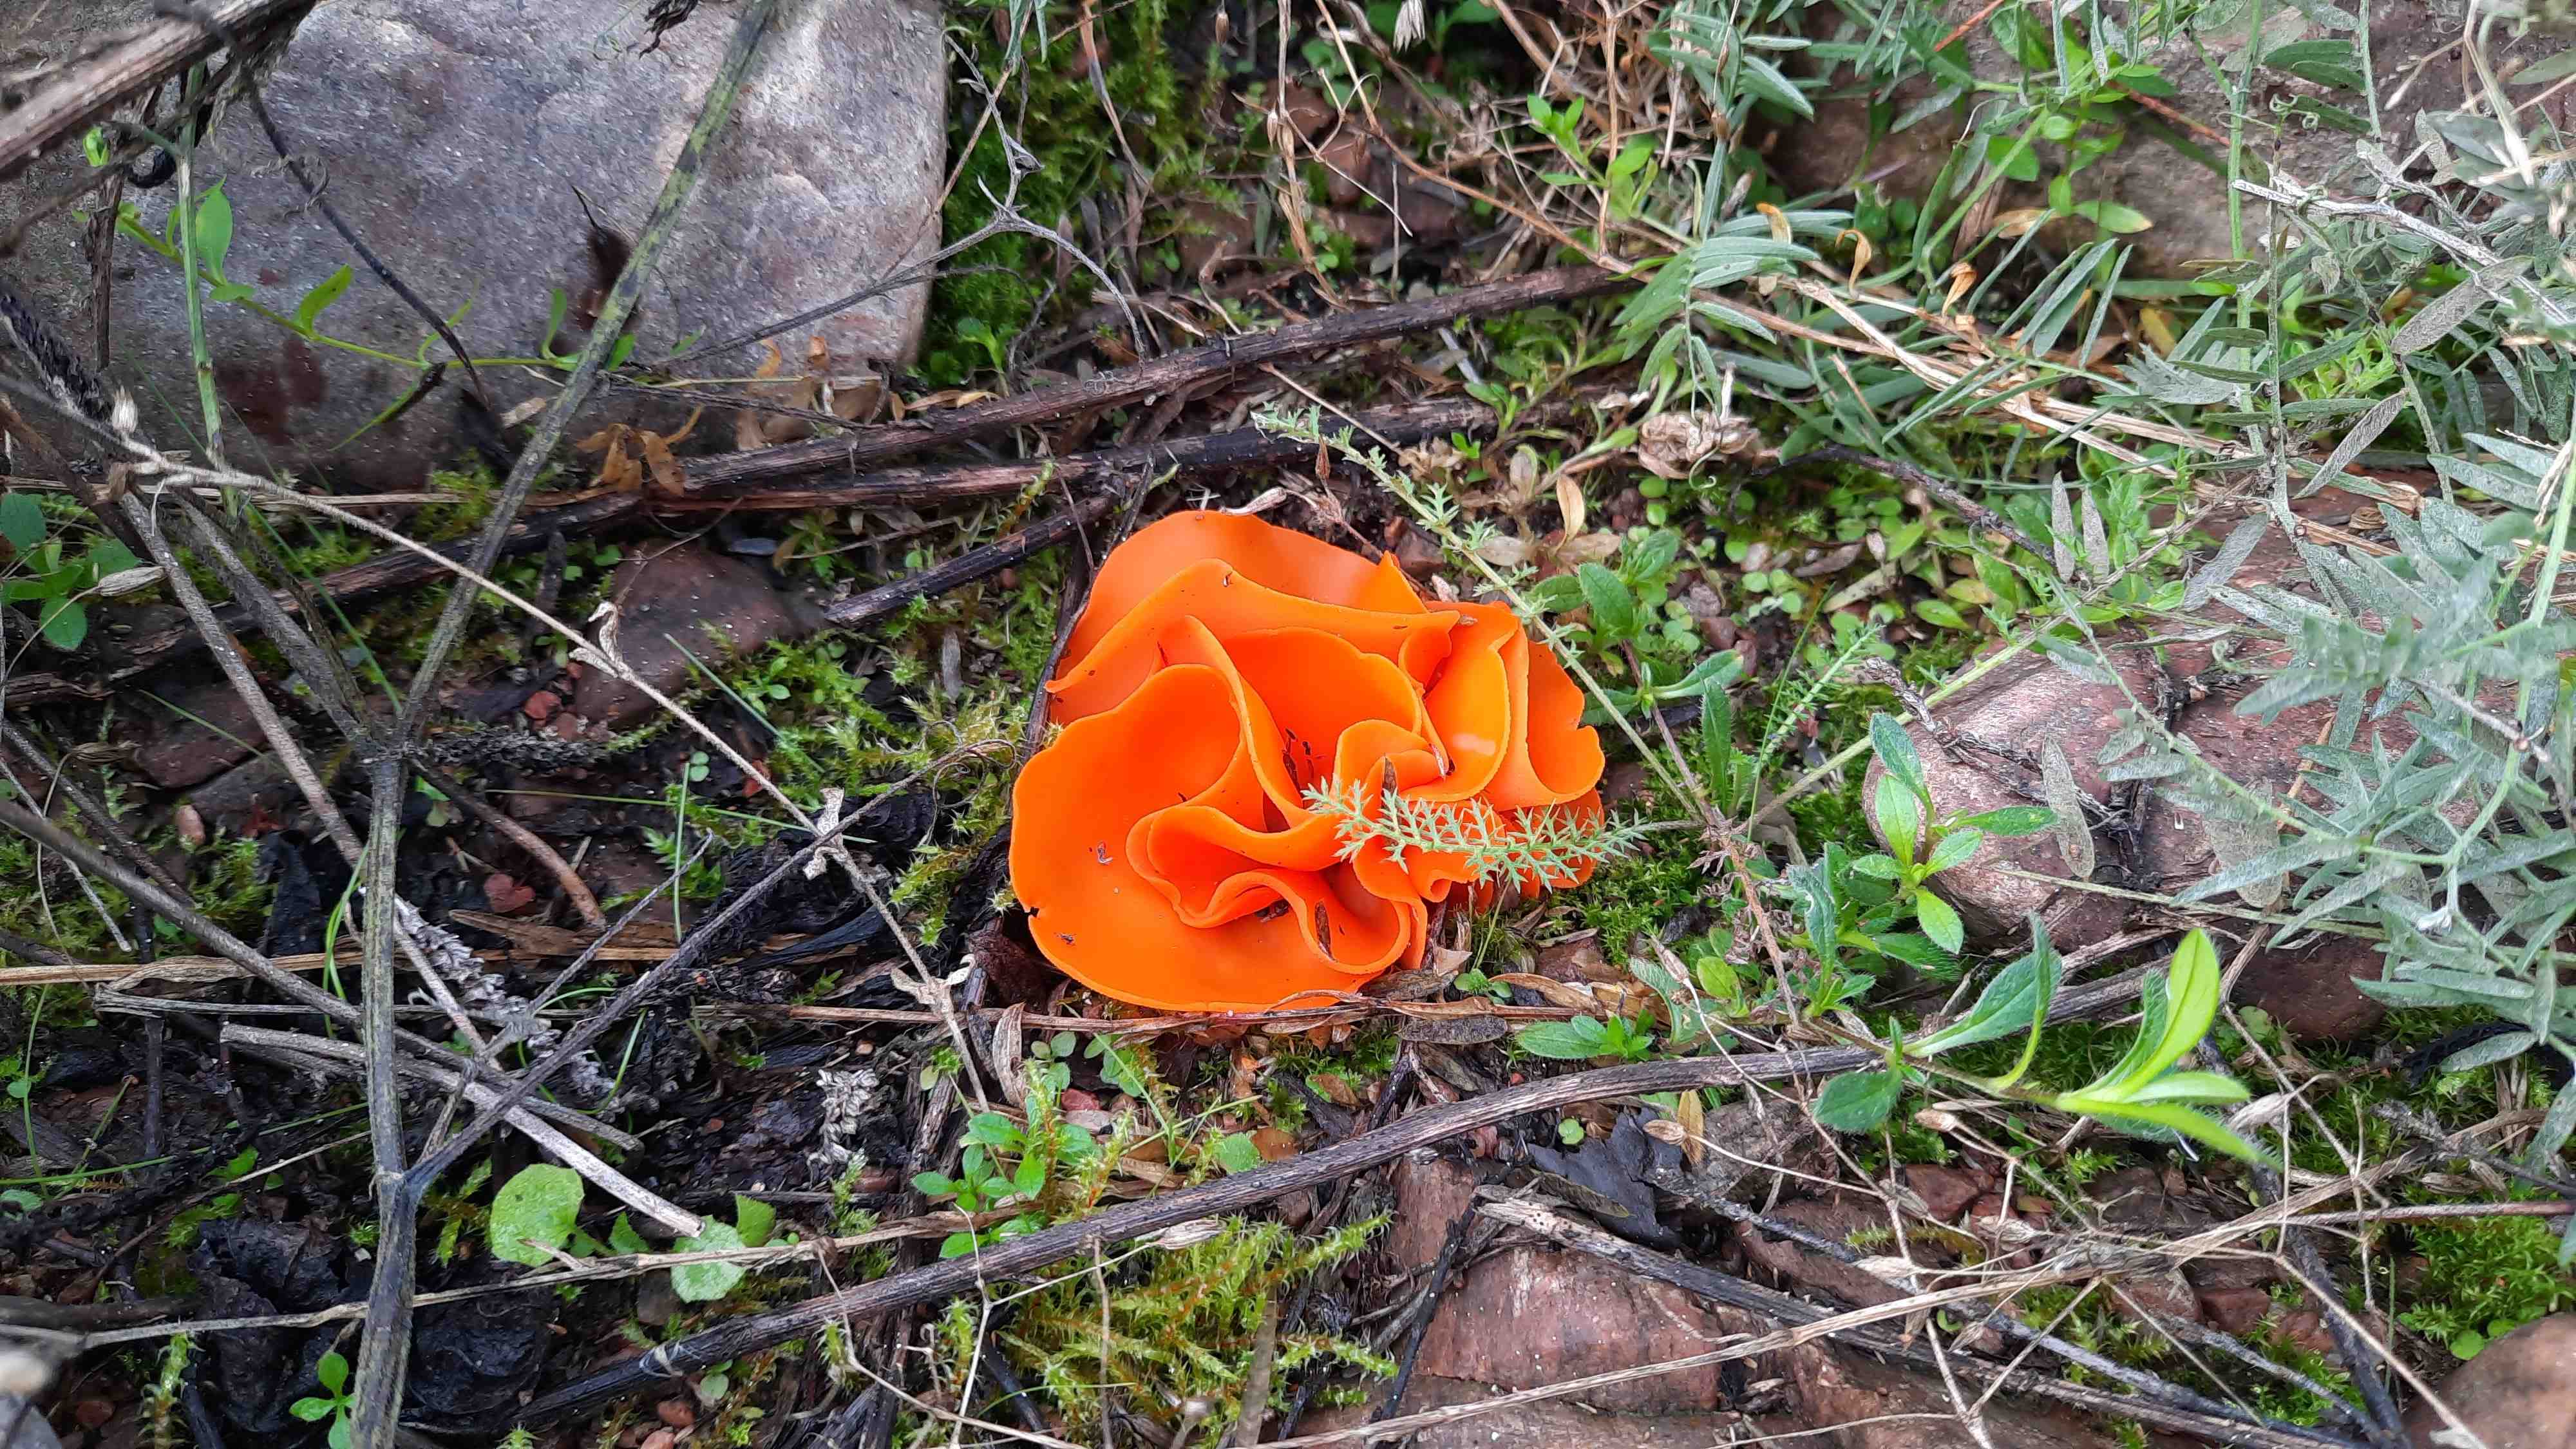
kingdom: Fungi
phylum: Ascomycota
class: Pezizomycetes
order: Pezizales
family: Pyronemataceae
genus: Aleuria
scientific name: Aleuria aurantia
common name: almindelig orangebæger
